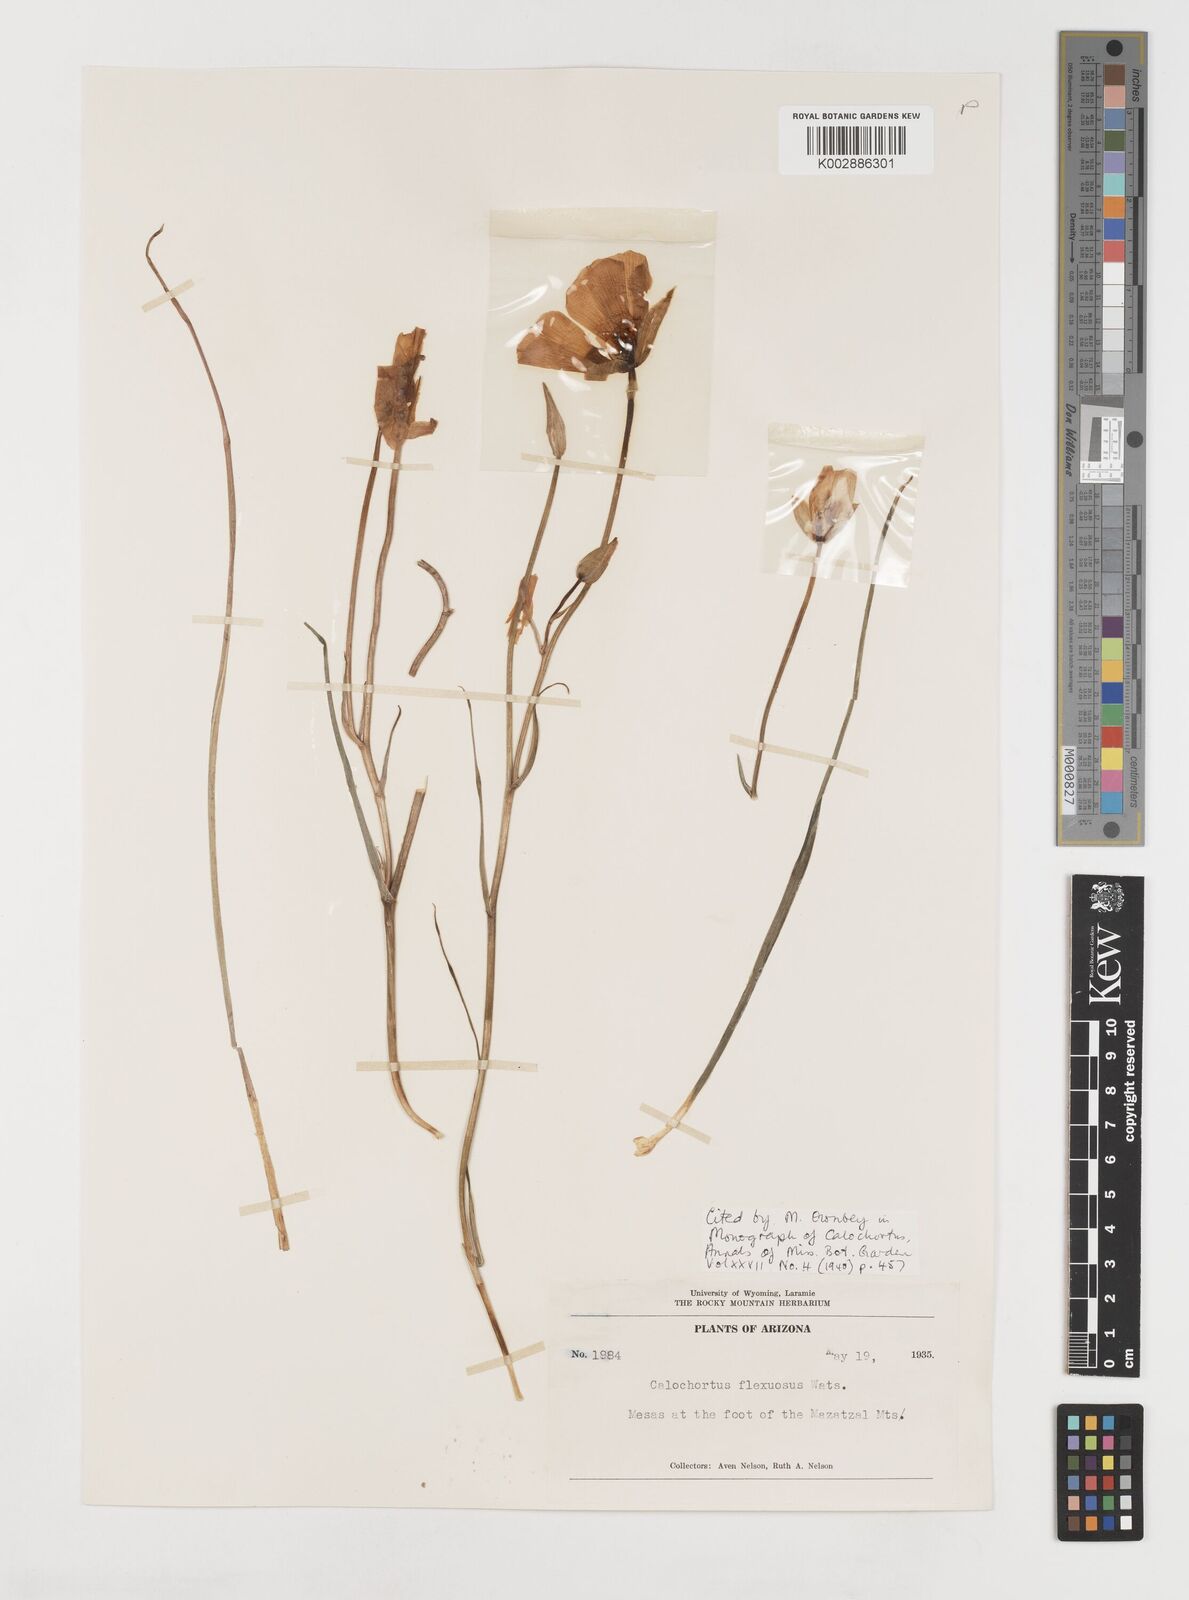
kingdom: Plantae
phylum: Tracheophyta
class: Liliopsida
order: Liliales
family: Liliaceae
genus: Calochortus
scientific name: Calochortus flexuosus
